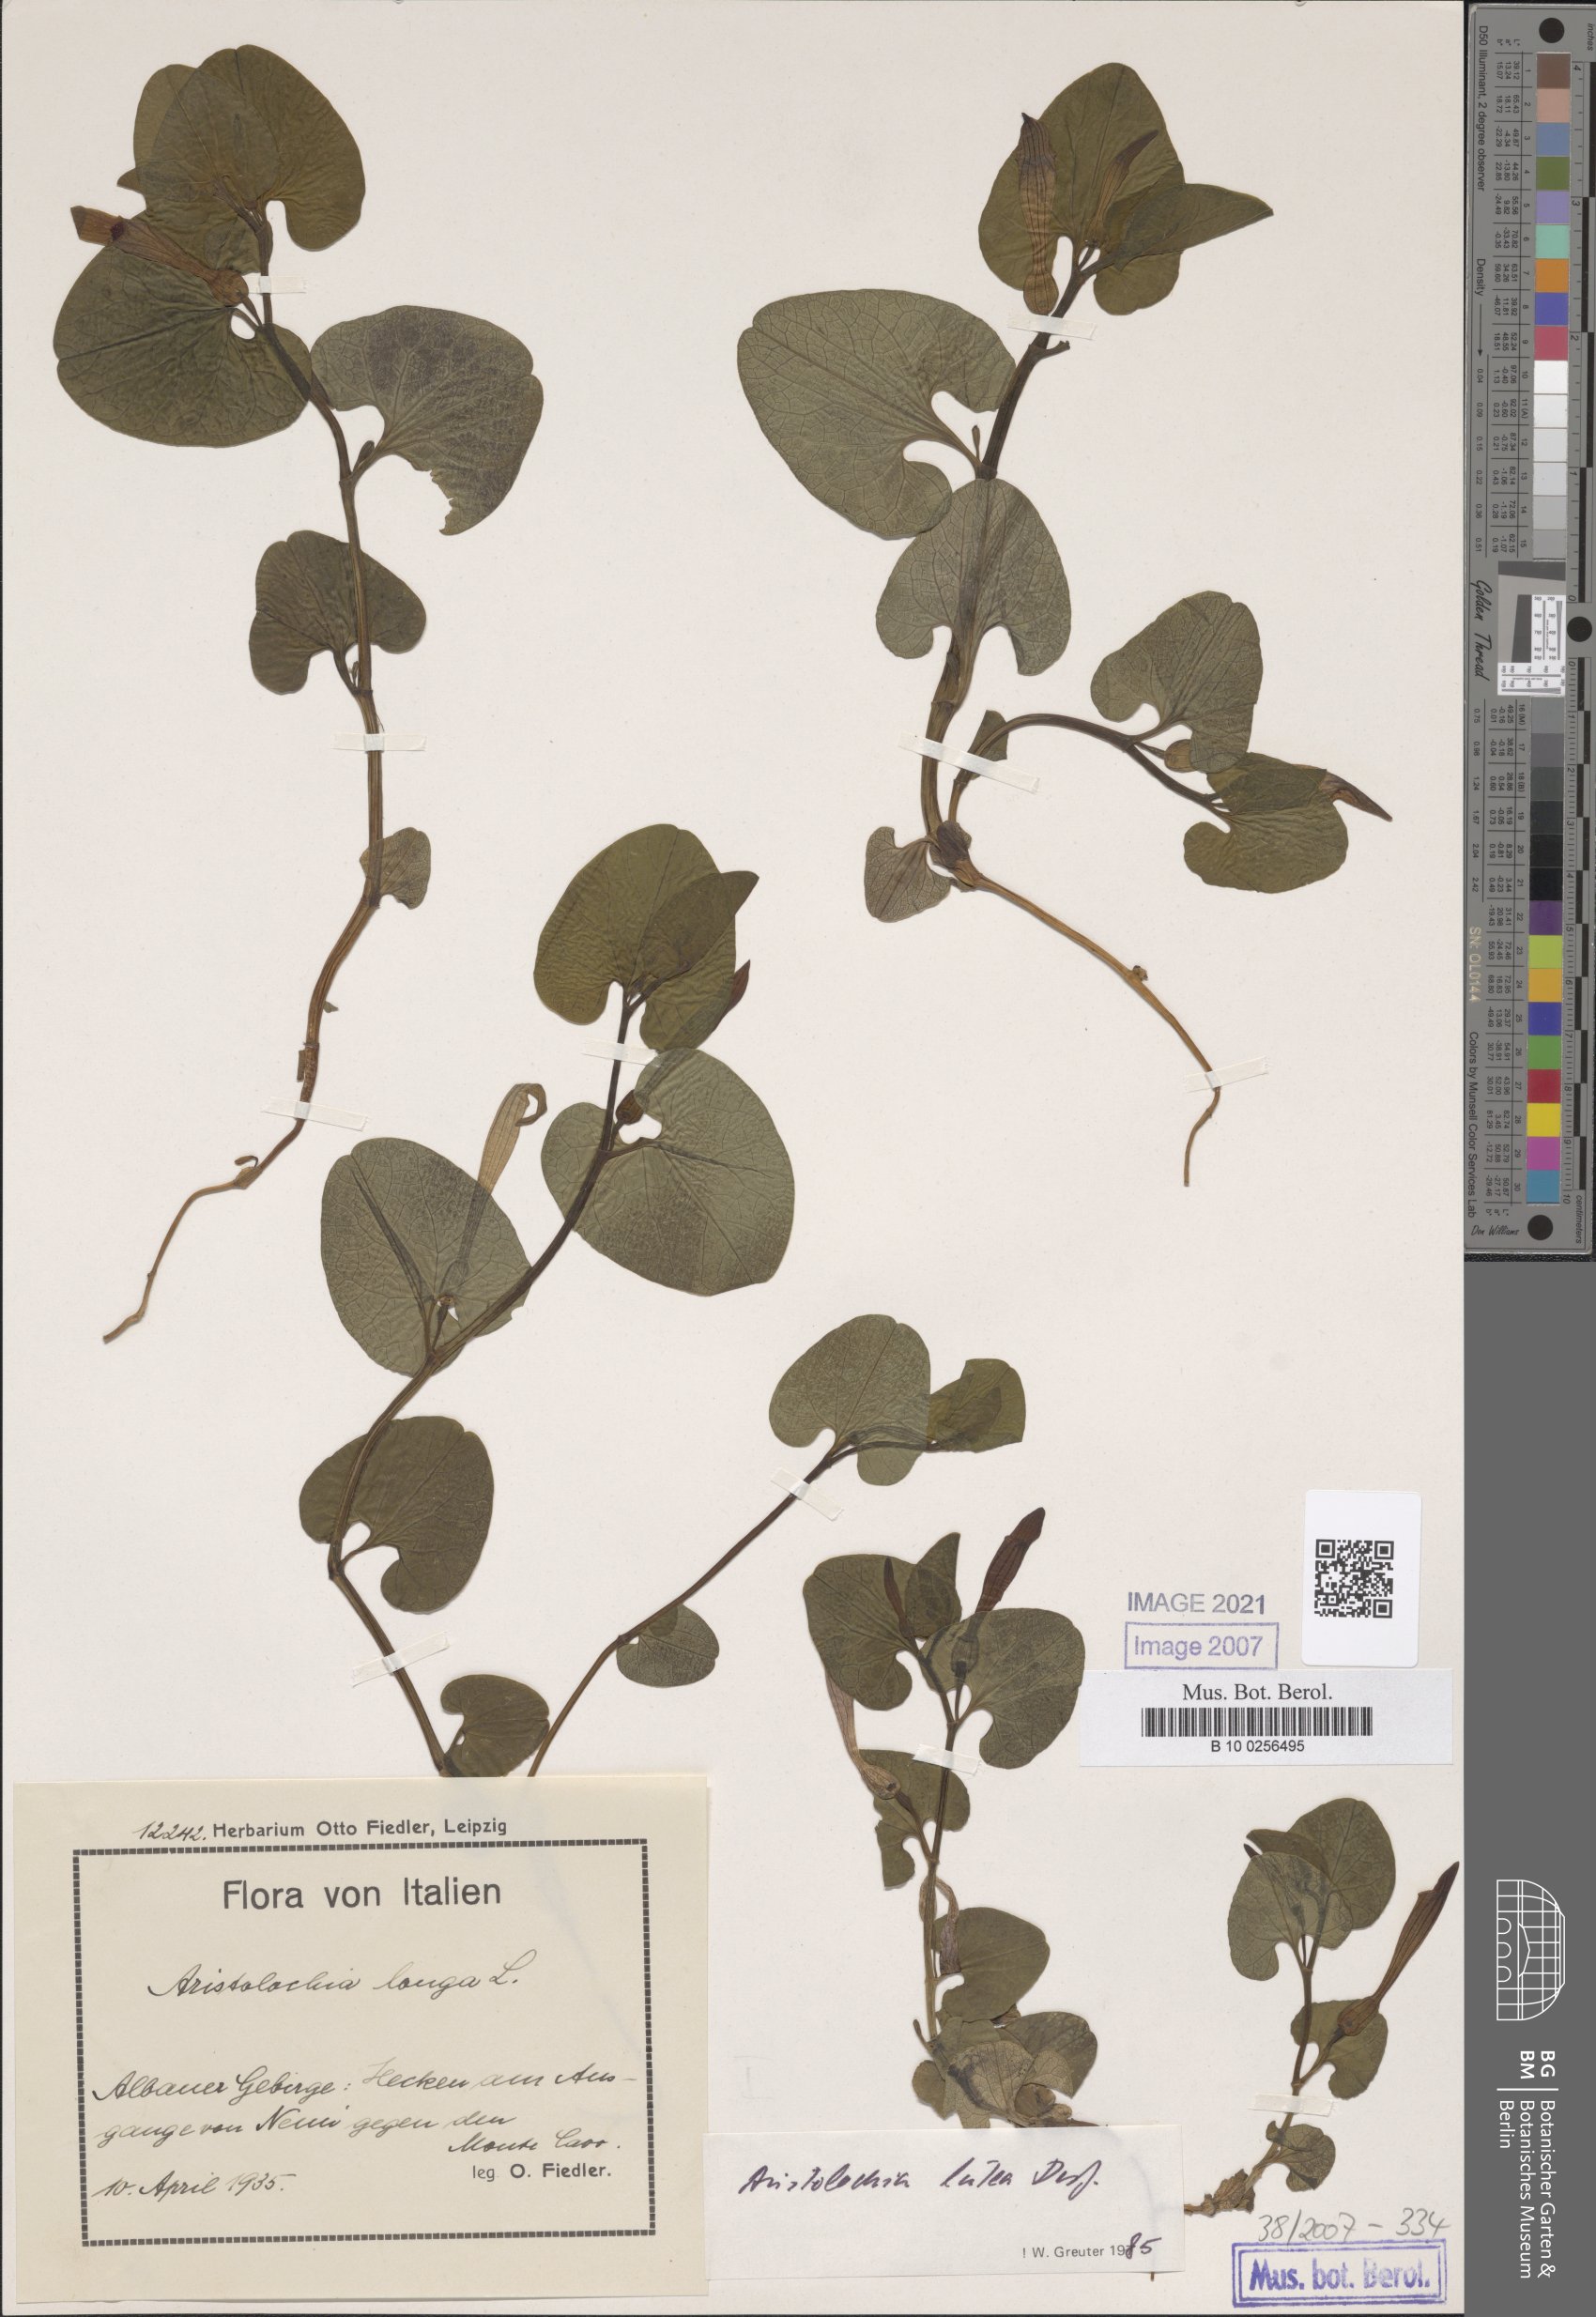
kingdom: Plantae
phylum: Tracheophyta
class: Magnoliopsida
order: Piperales
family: Aristolochiaceae
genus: Aristolochia
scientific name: Aristolochia lutea
